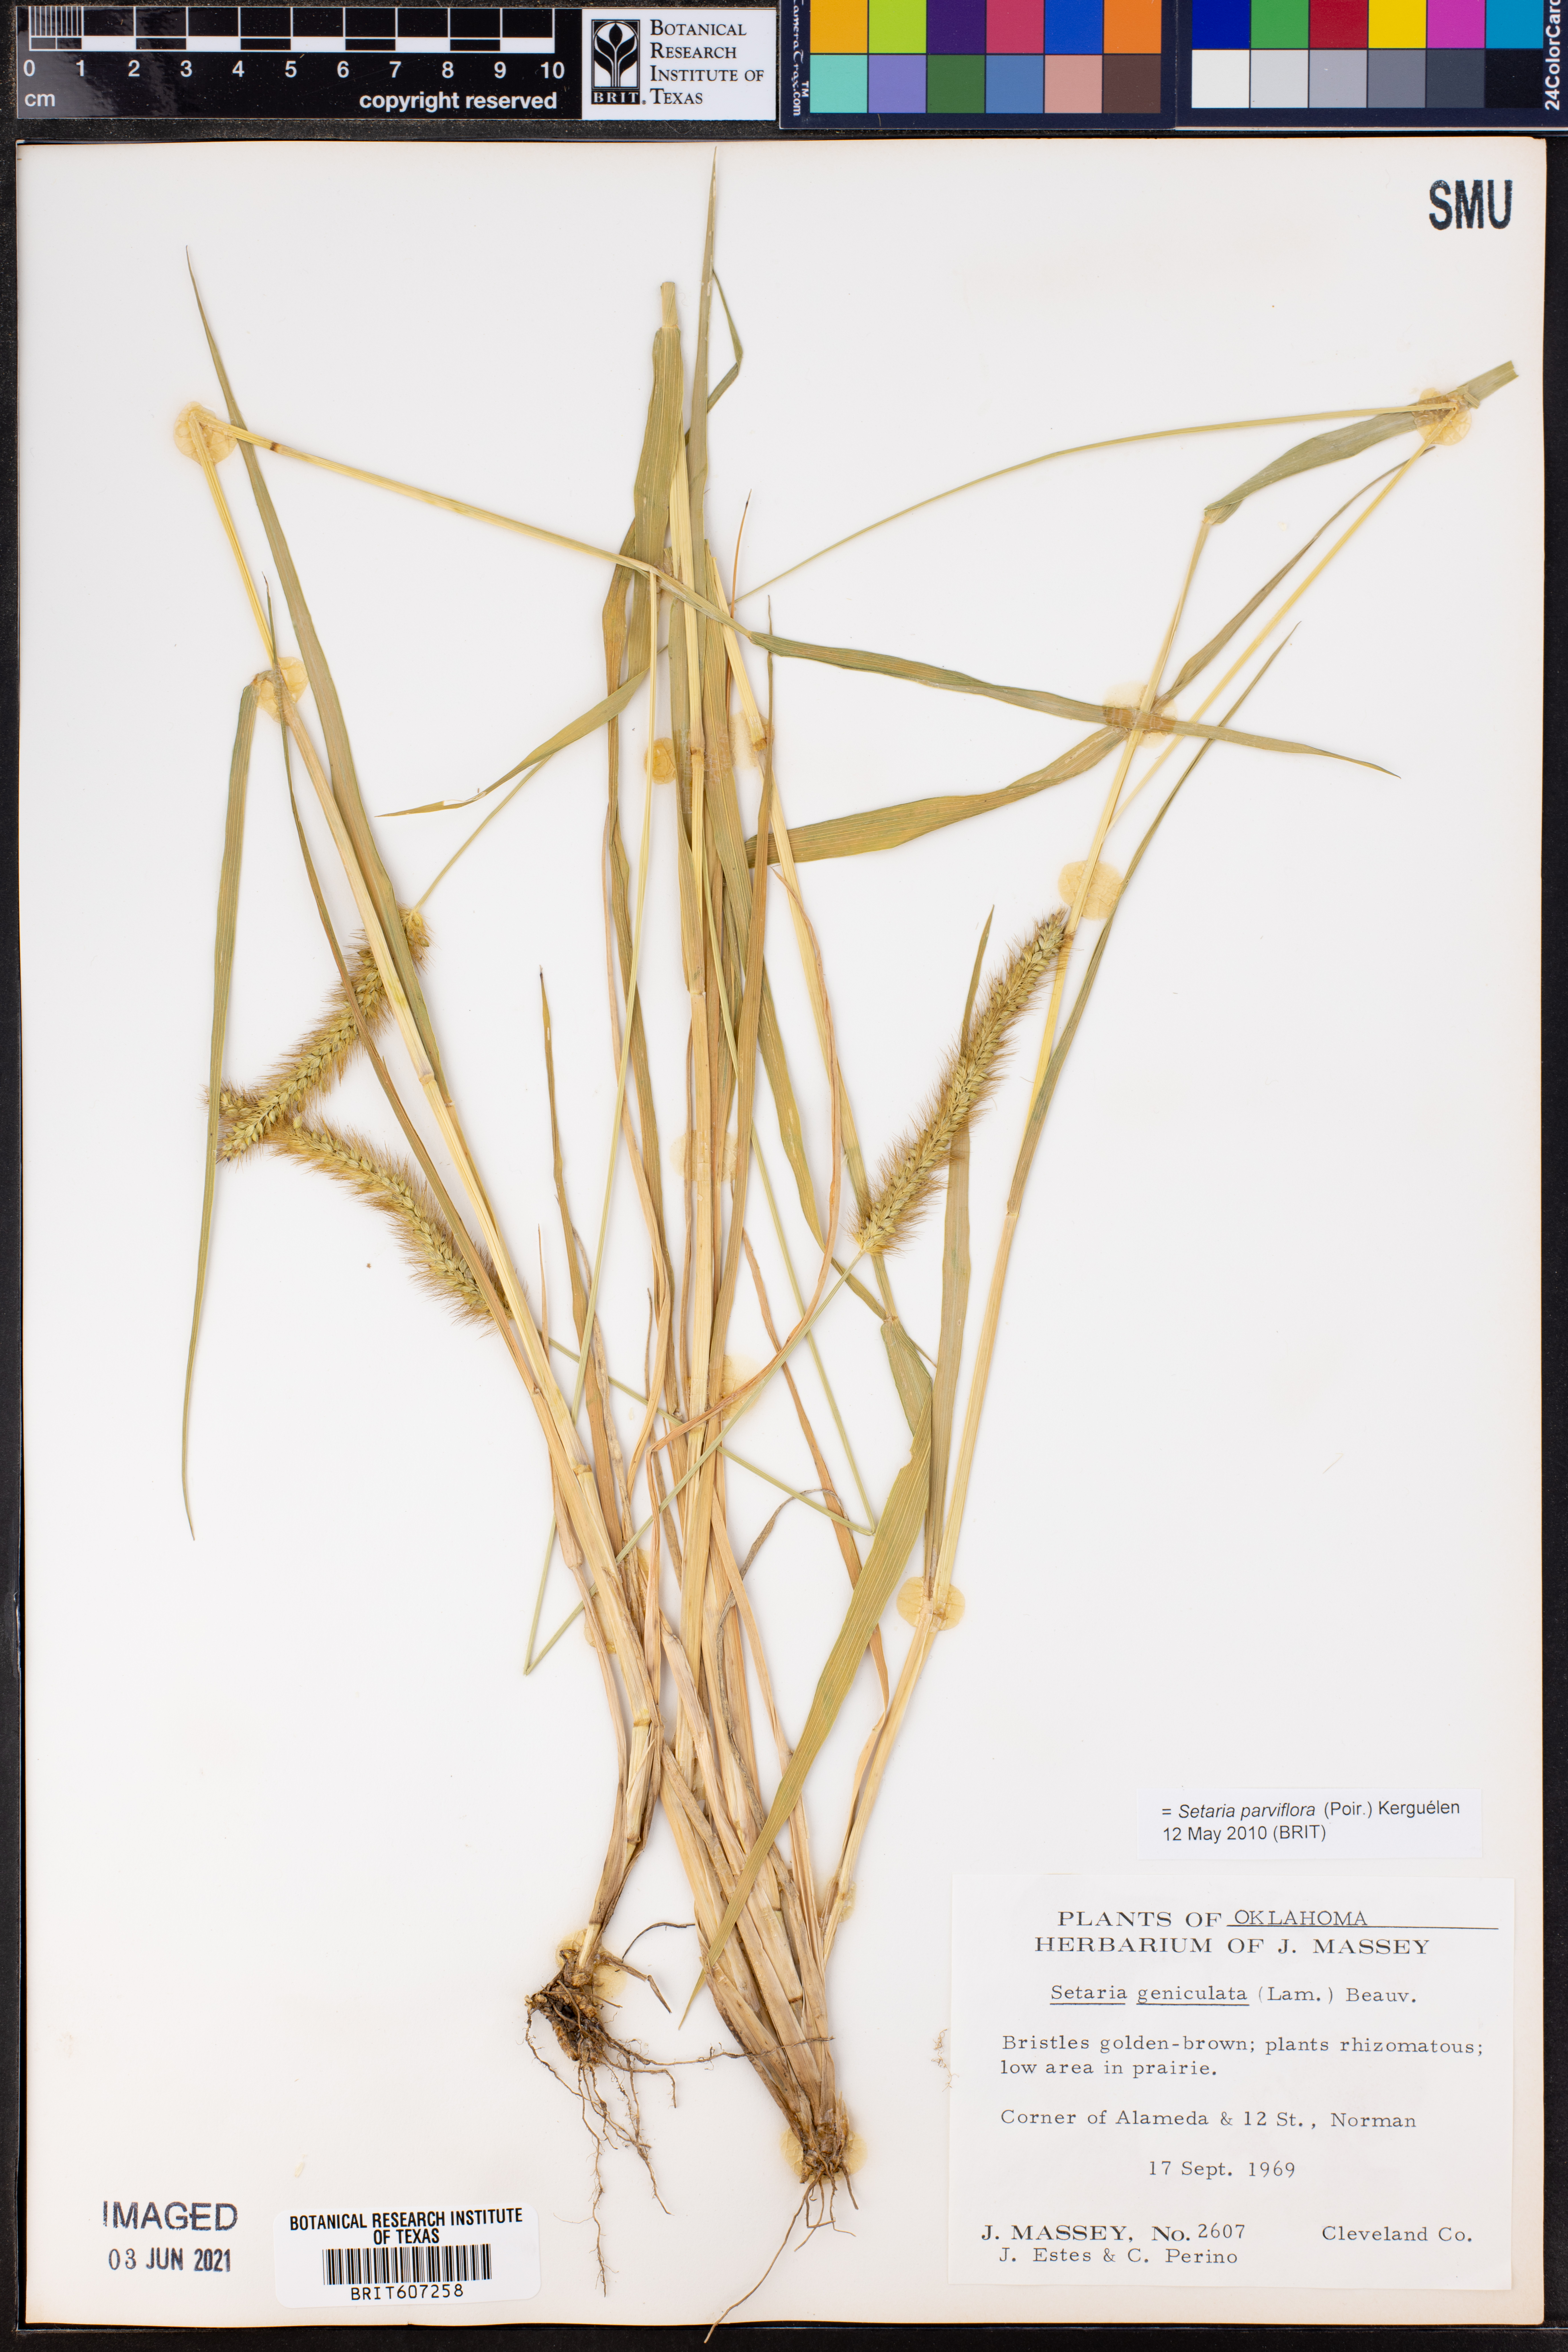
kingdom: Plantae
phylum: Tracheophyta
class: Liliopsida
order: Poales
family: Poaceae
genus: Setaria
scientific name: Setaria parviflora
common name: Knotroot bristle-grass
